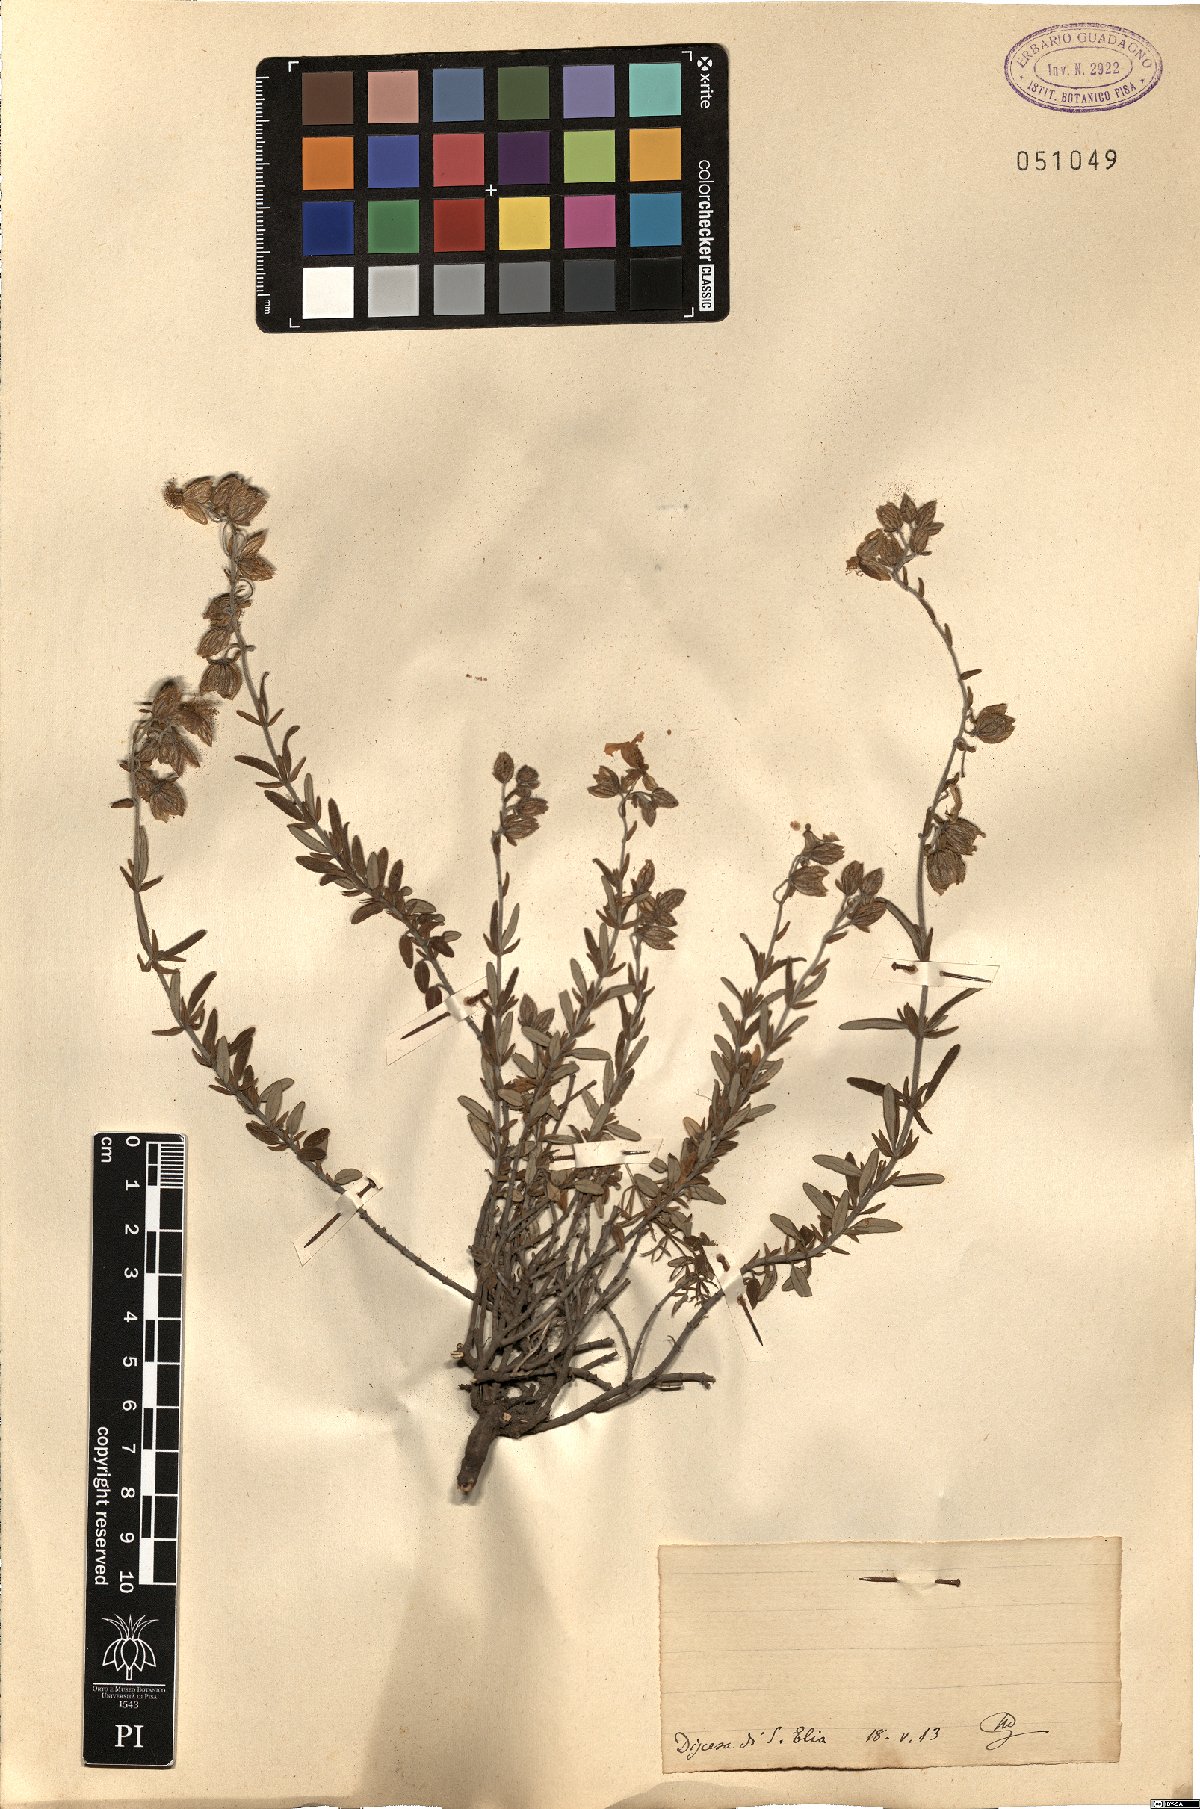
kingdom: Plantae
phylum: Tracheophyta
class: Magnoliopsida
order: Malvales
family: Cistaceae
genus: Helianthemum
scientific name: Helianthemum
